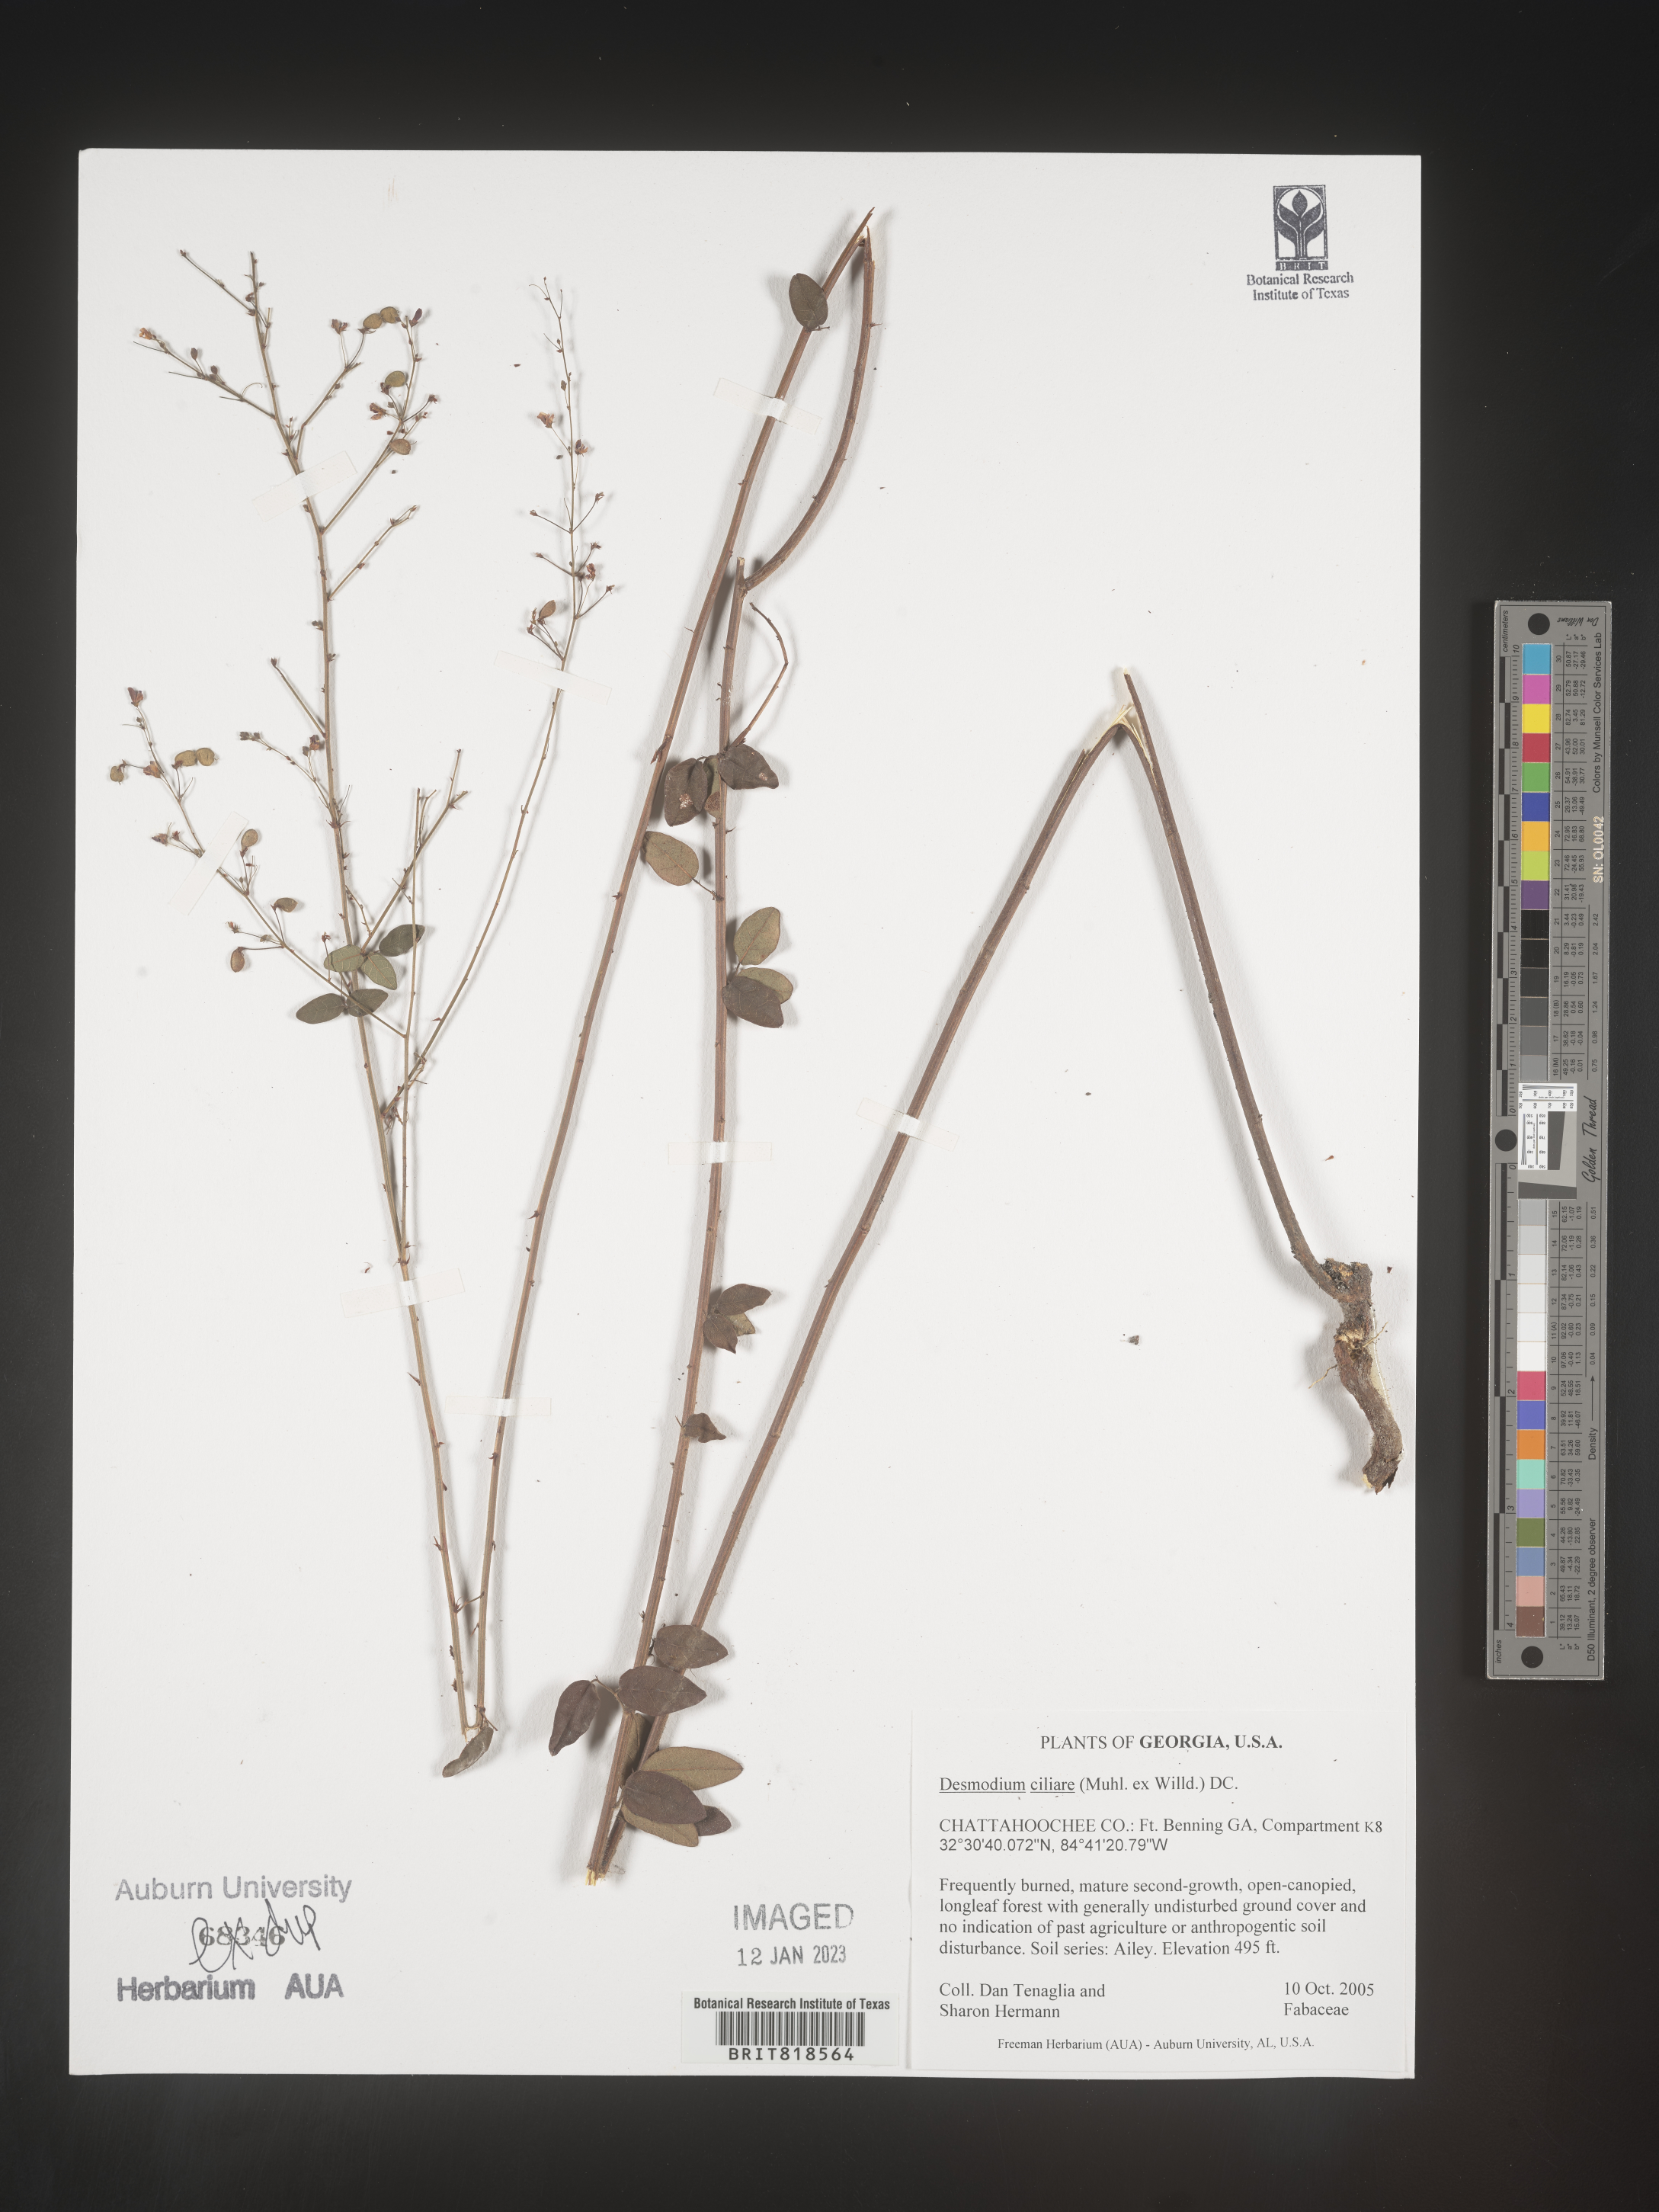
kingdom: Plantae
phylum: Tracheophyta
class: Magnoliopsida
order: Fabales
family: Fabaceae
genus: Desmodium
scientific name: Desmodium ciliare
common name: Hairy small-leaf ticktrefoil
